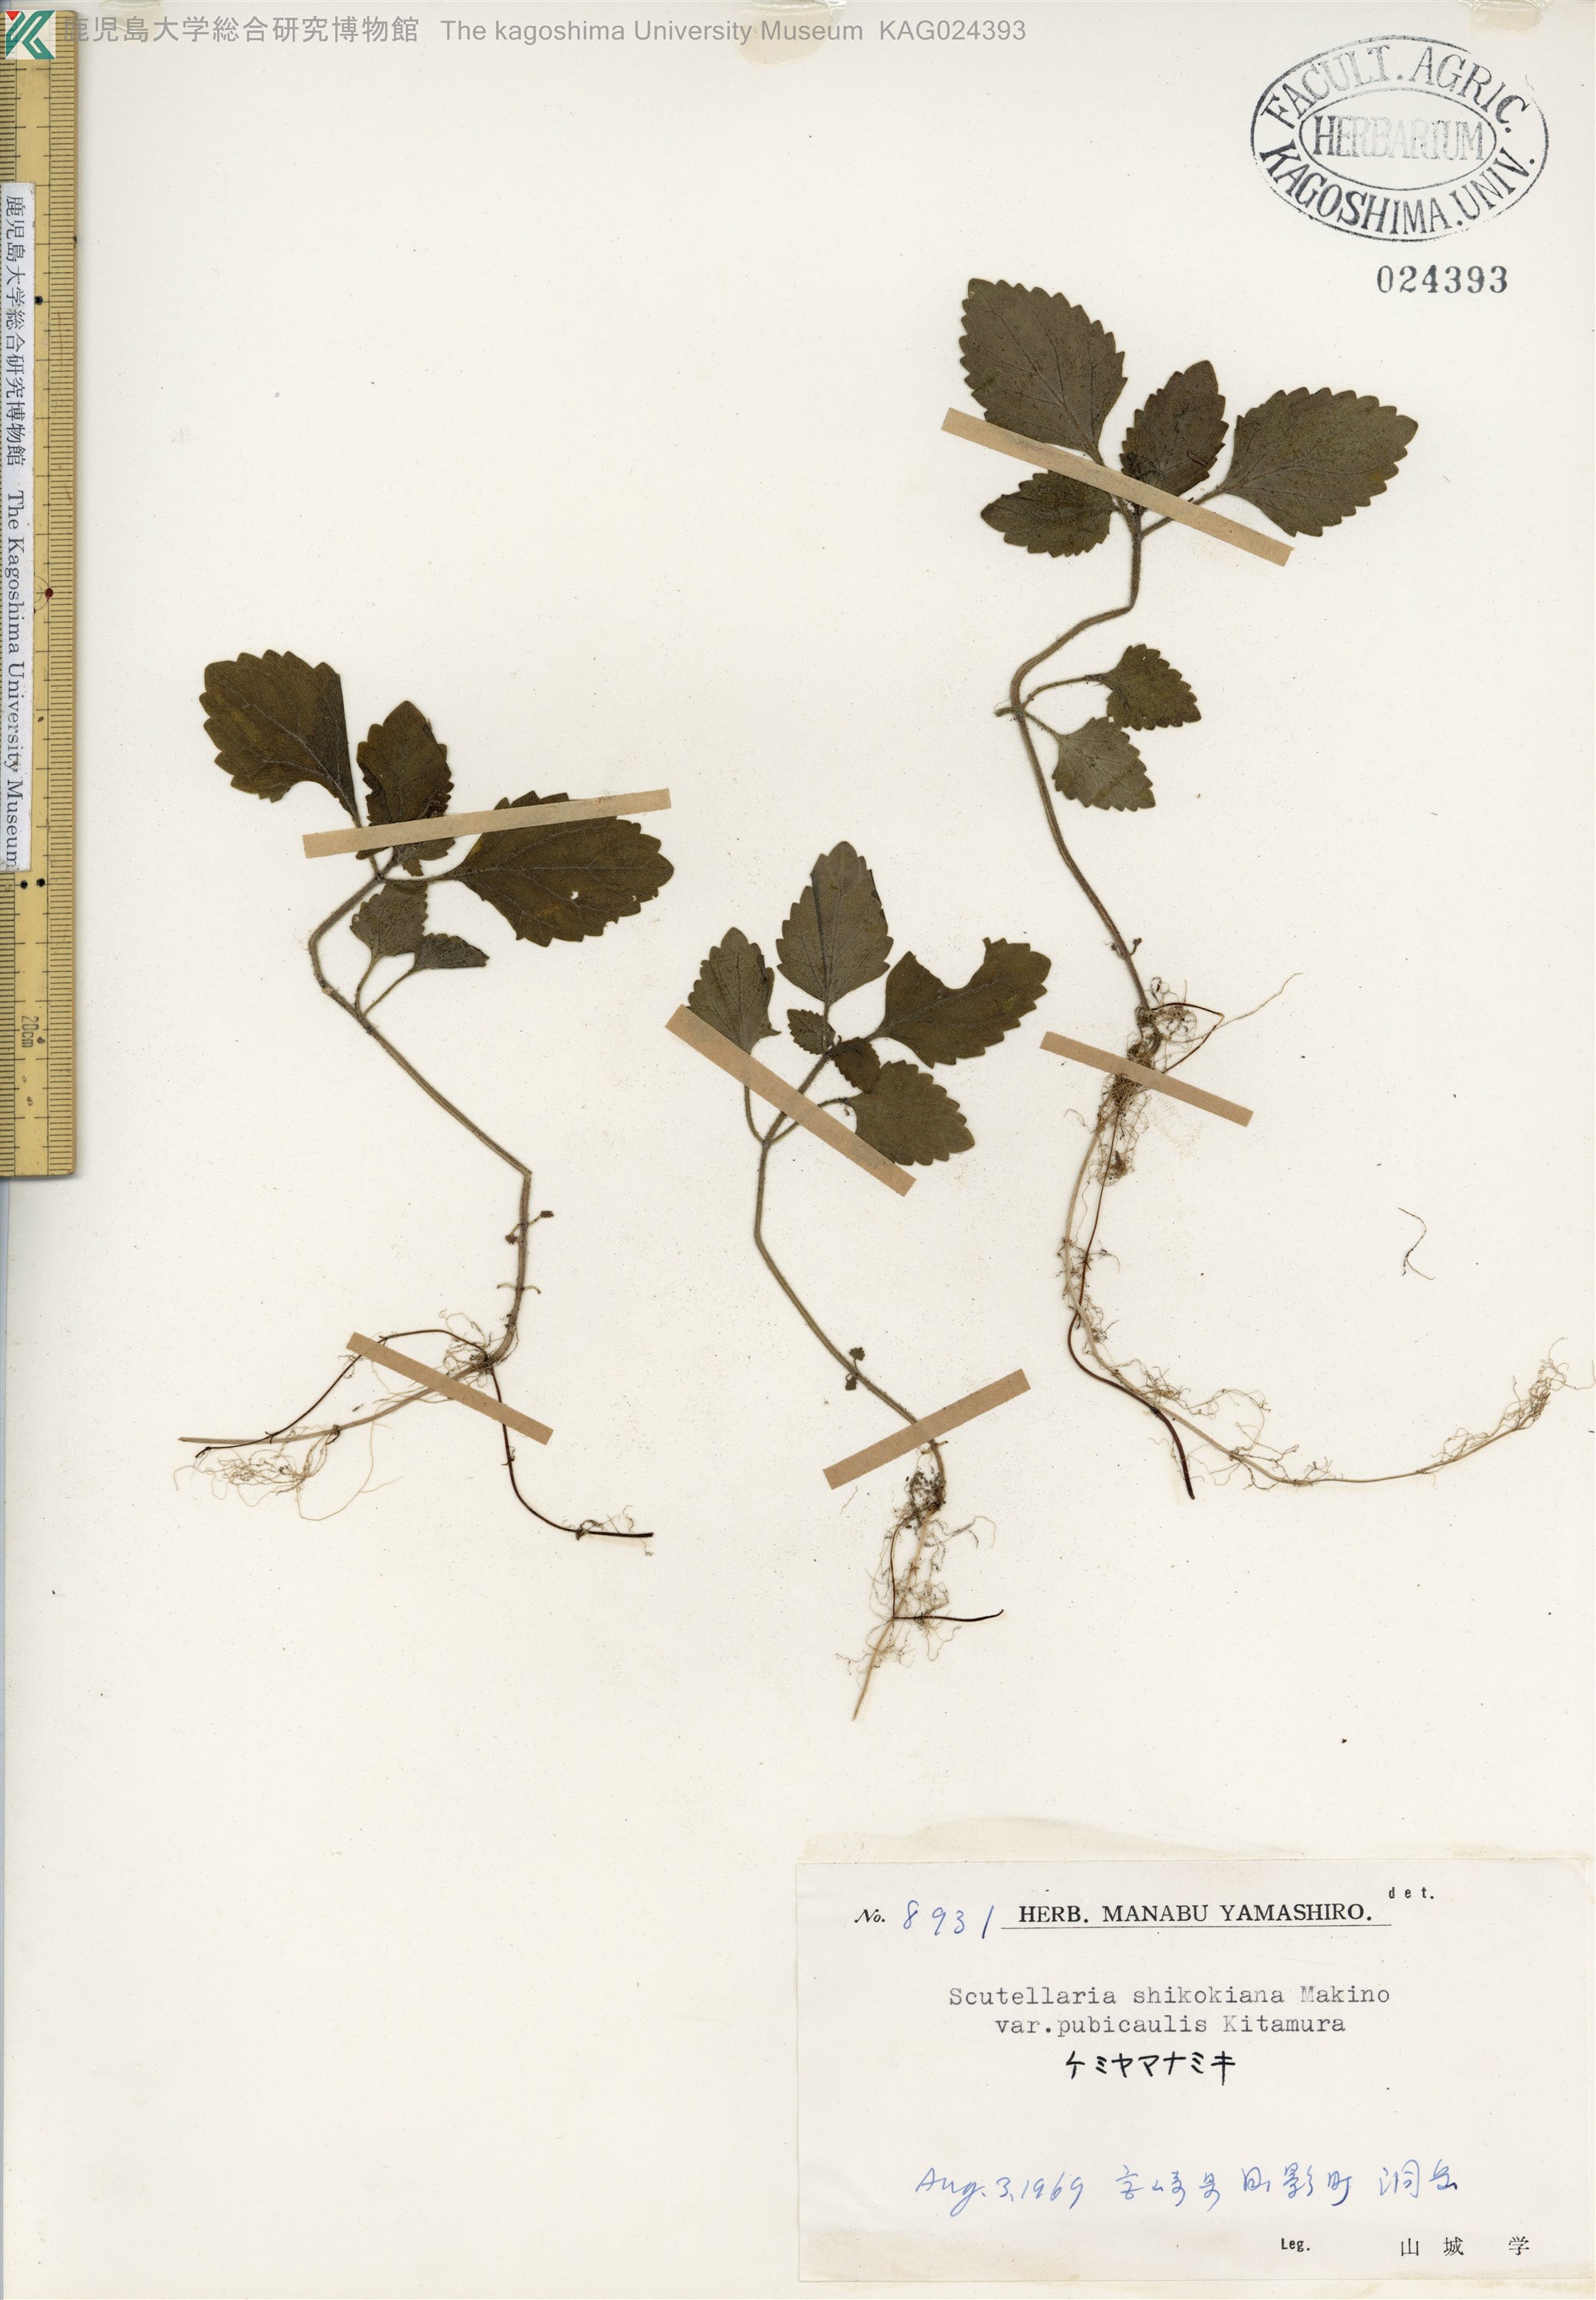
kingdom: Plantae
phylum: Tracheophyta
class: Magnoliopsida
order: Lamiales
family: Lamiaceae
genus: Scutellaria
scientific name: Scutellaria shikokiana
